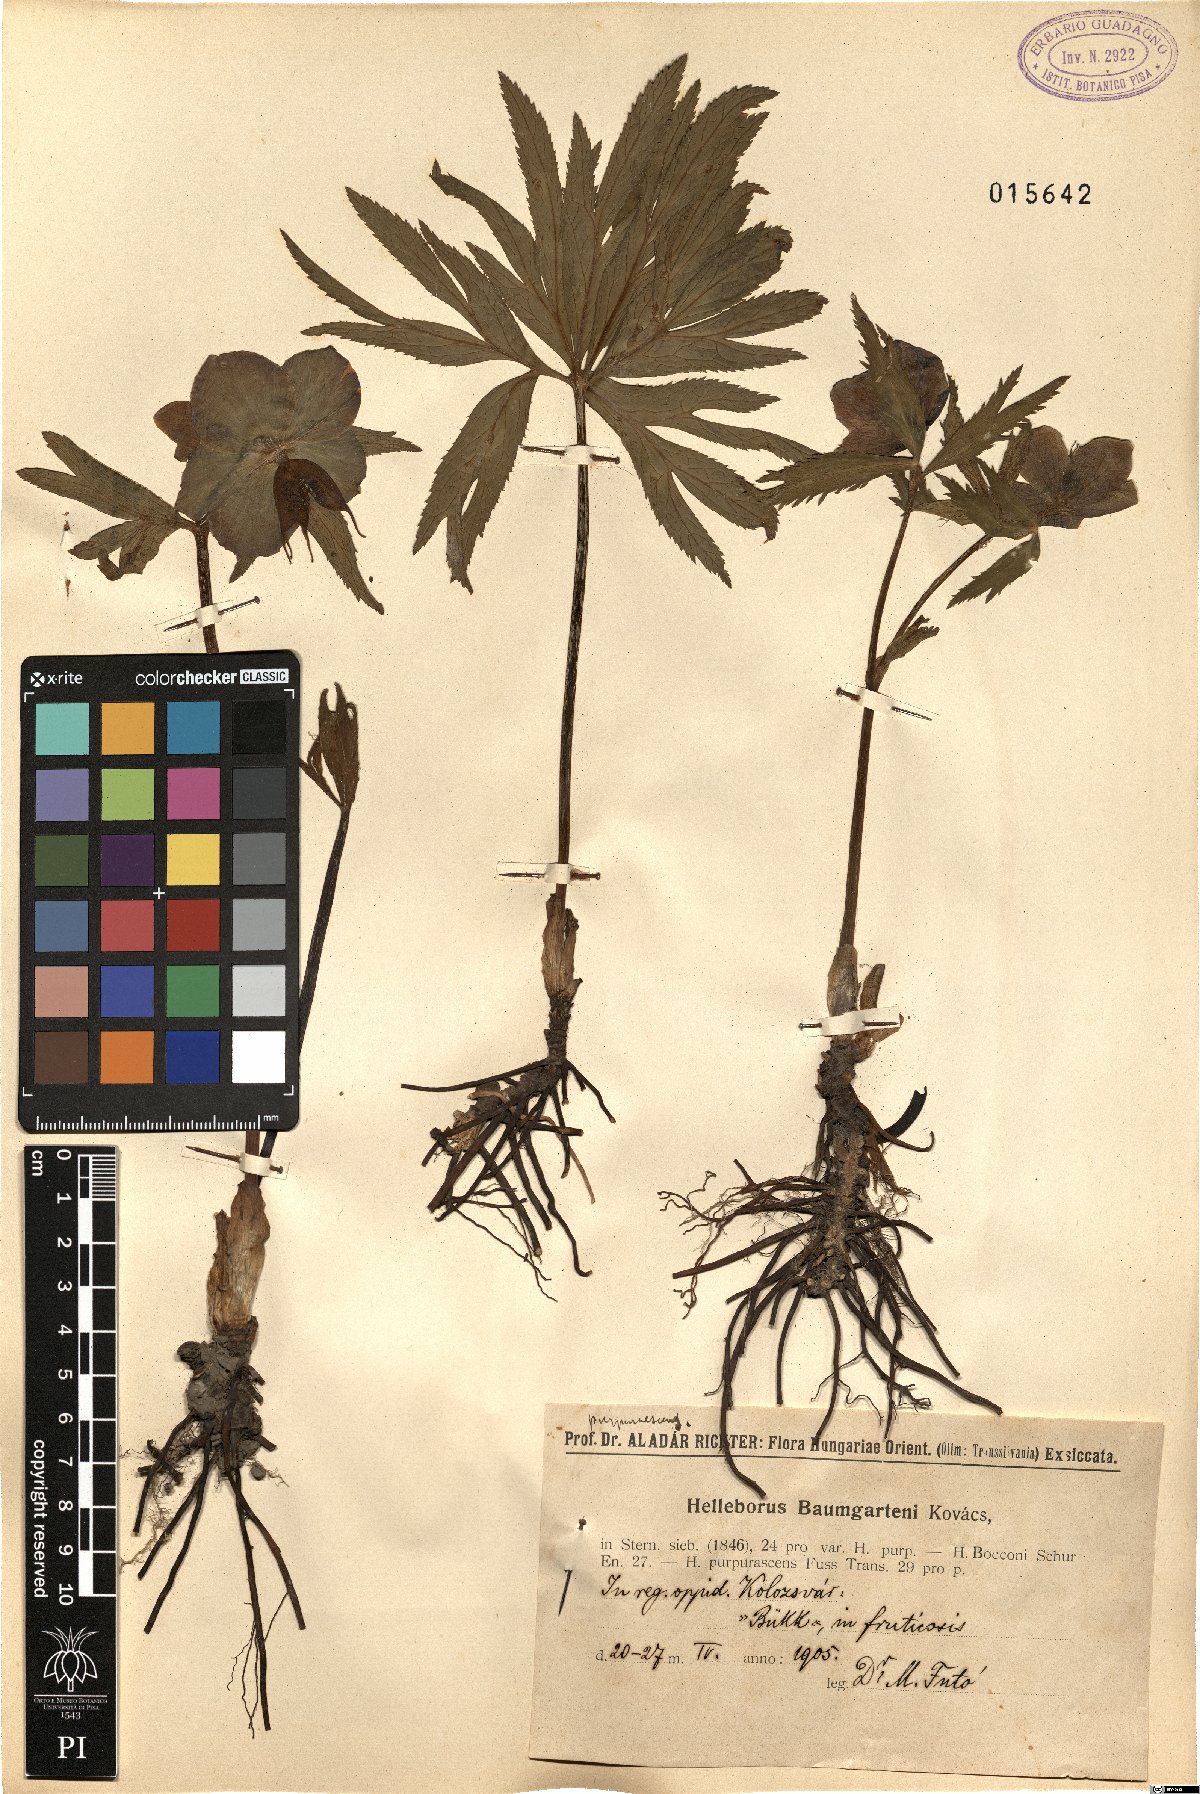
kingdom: Plantae
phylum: Tracheophyta
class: Magnoliopsida
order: Ranunculales
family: Ranunculaceae
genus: Helleborus
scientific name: Helleborus purpurascens
